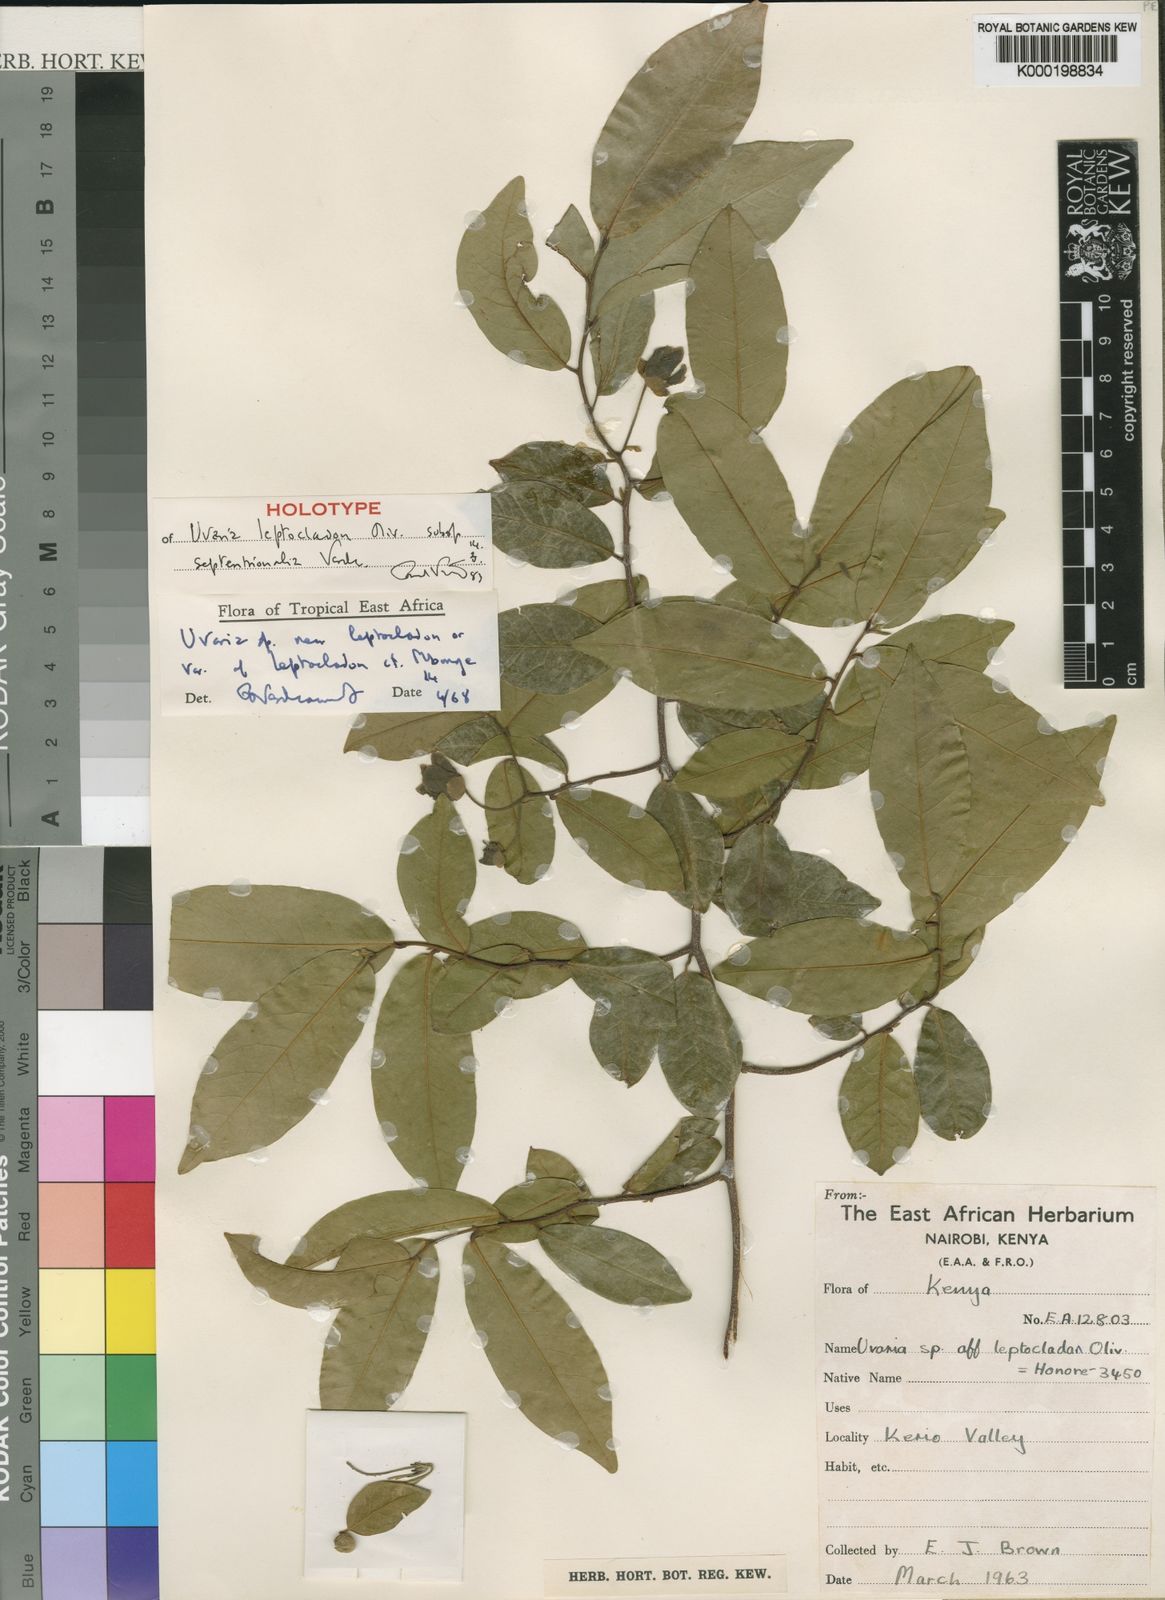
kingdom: Plantae
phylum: Tracheophyta
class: Magnoliopsida
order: Magnoliales
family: Annonaceae
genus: Uvaria
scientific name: Uvaria leptocladon
